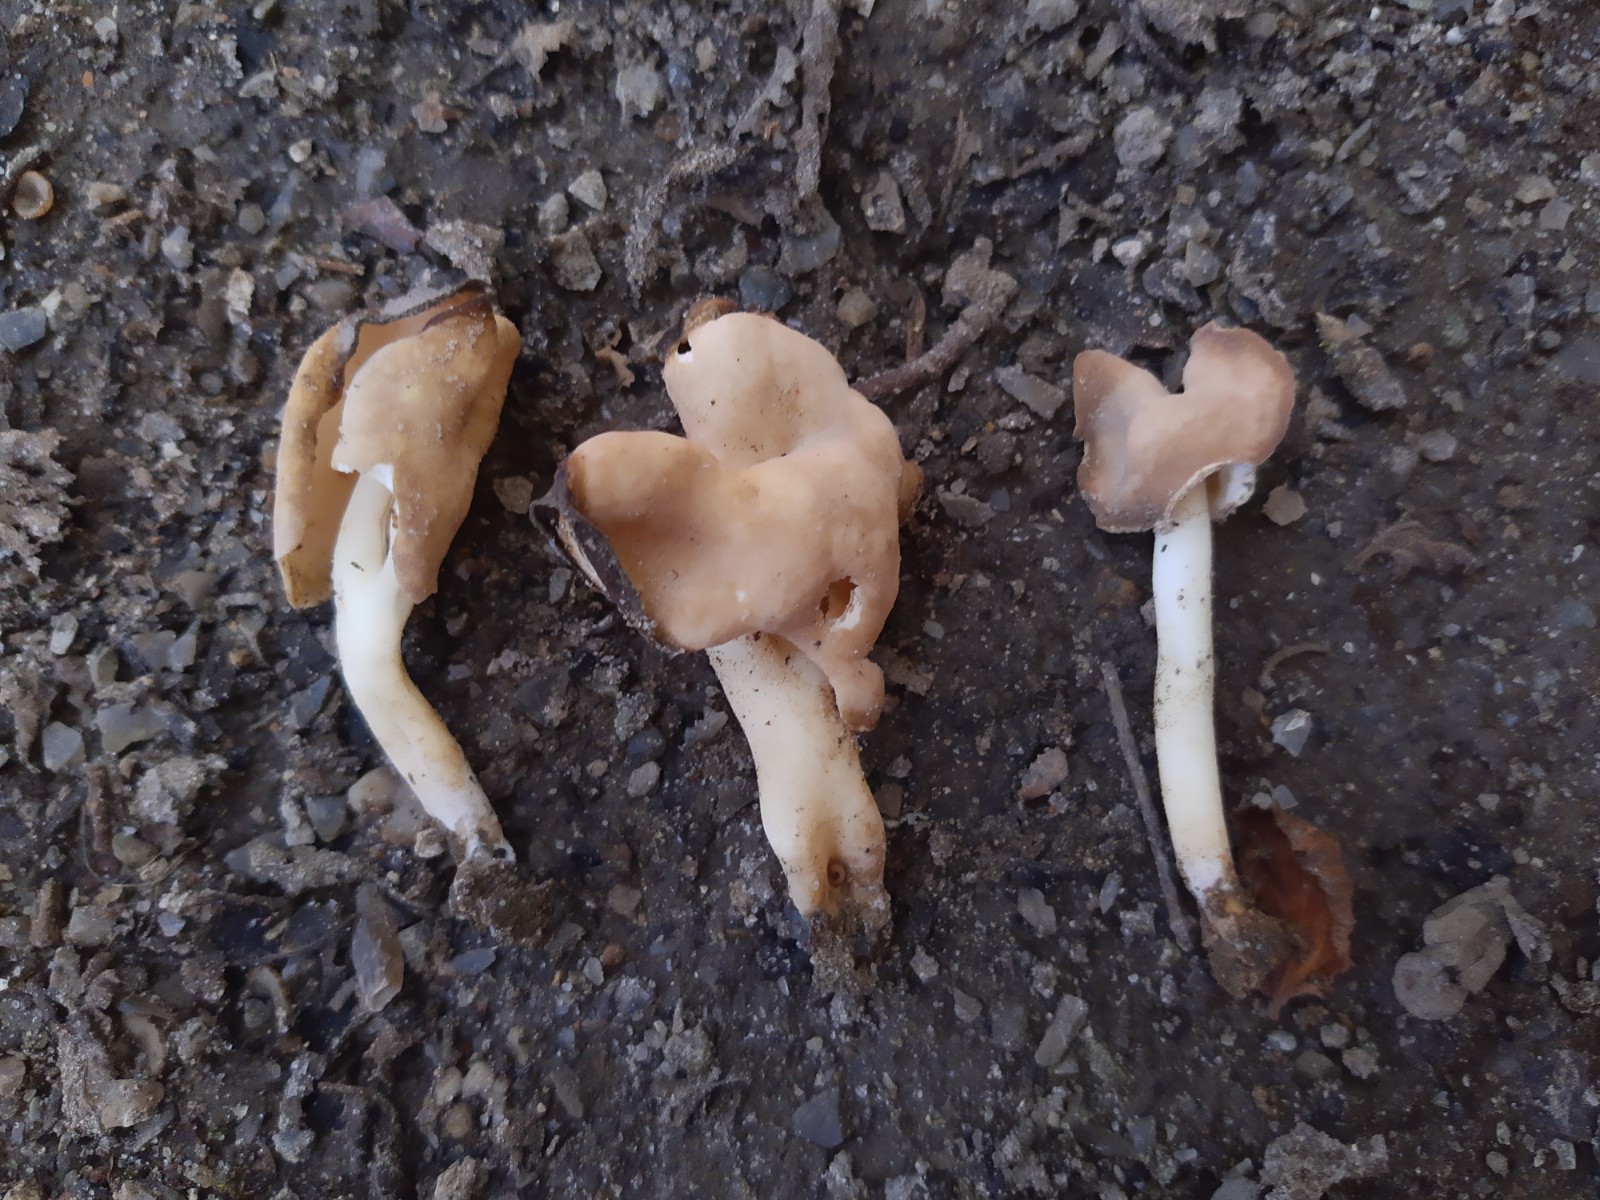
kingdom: Fungi
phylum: Ascomycota
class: Pezizomycetes
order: Pezizales
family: Helvellaceae
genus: Helvella
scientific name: Helvella elastica
